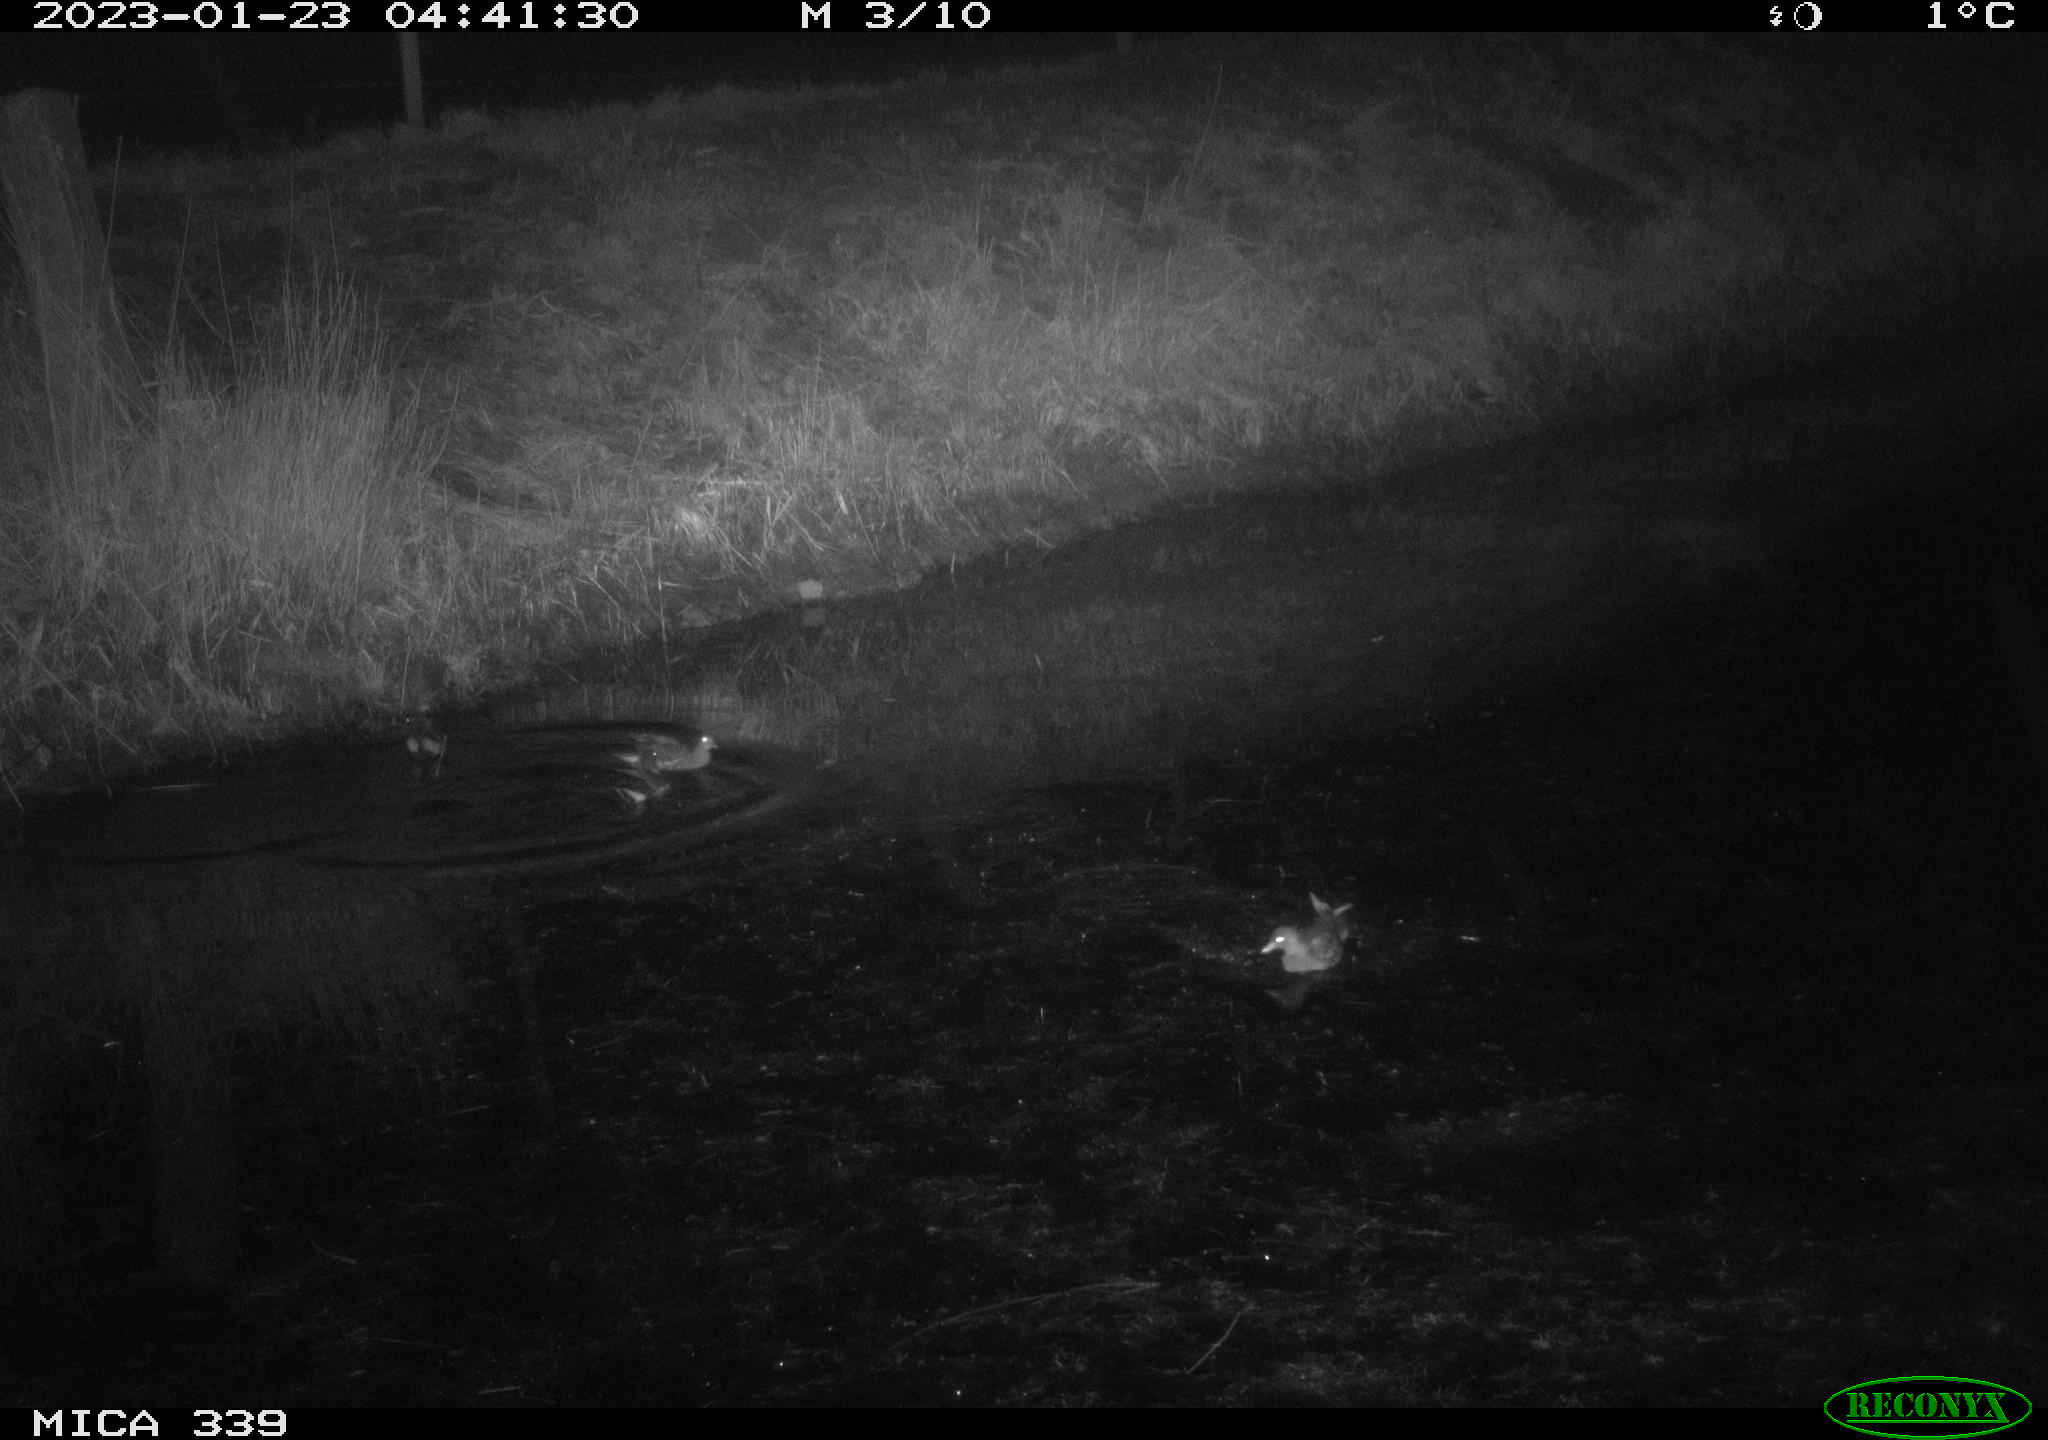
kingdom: Animalia
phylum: Chordata
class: Aves
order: Gruiformes
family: Rallidae
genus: Gallinula
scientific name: Gallinula chloropus
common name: Common moorhen
